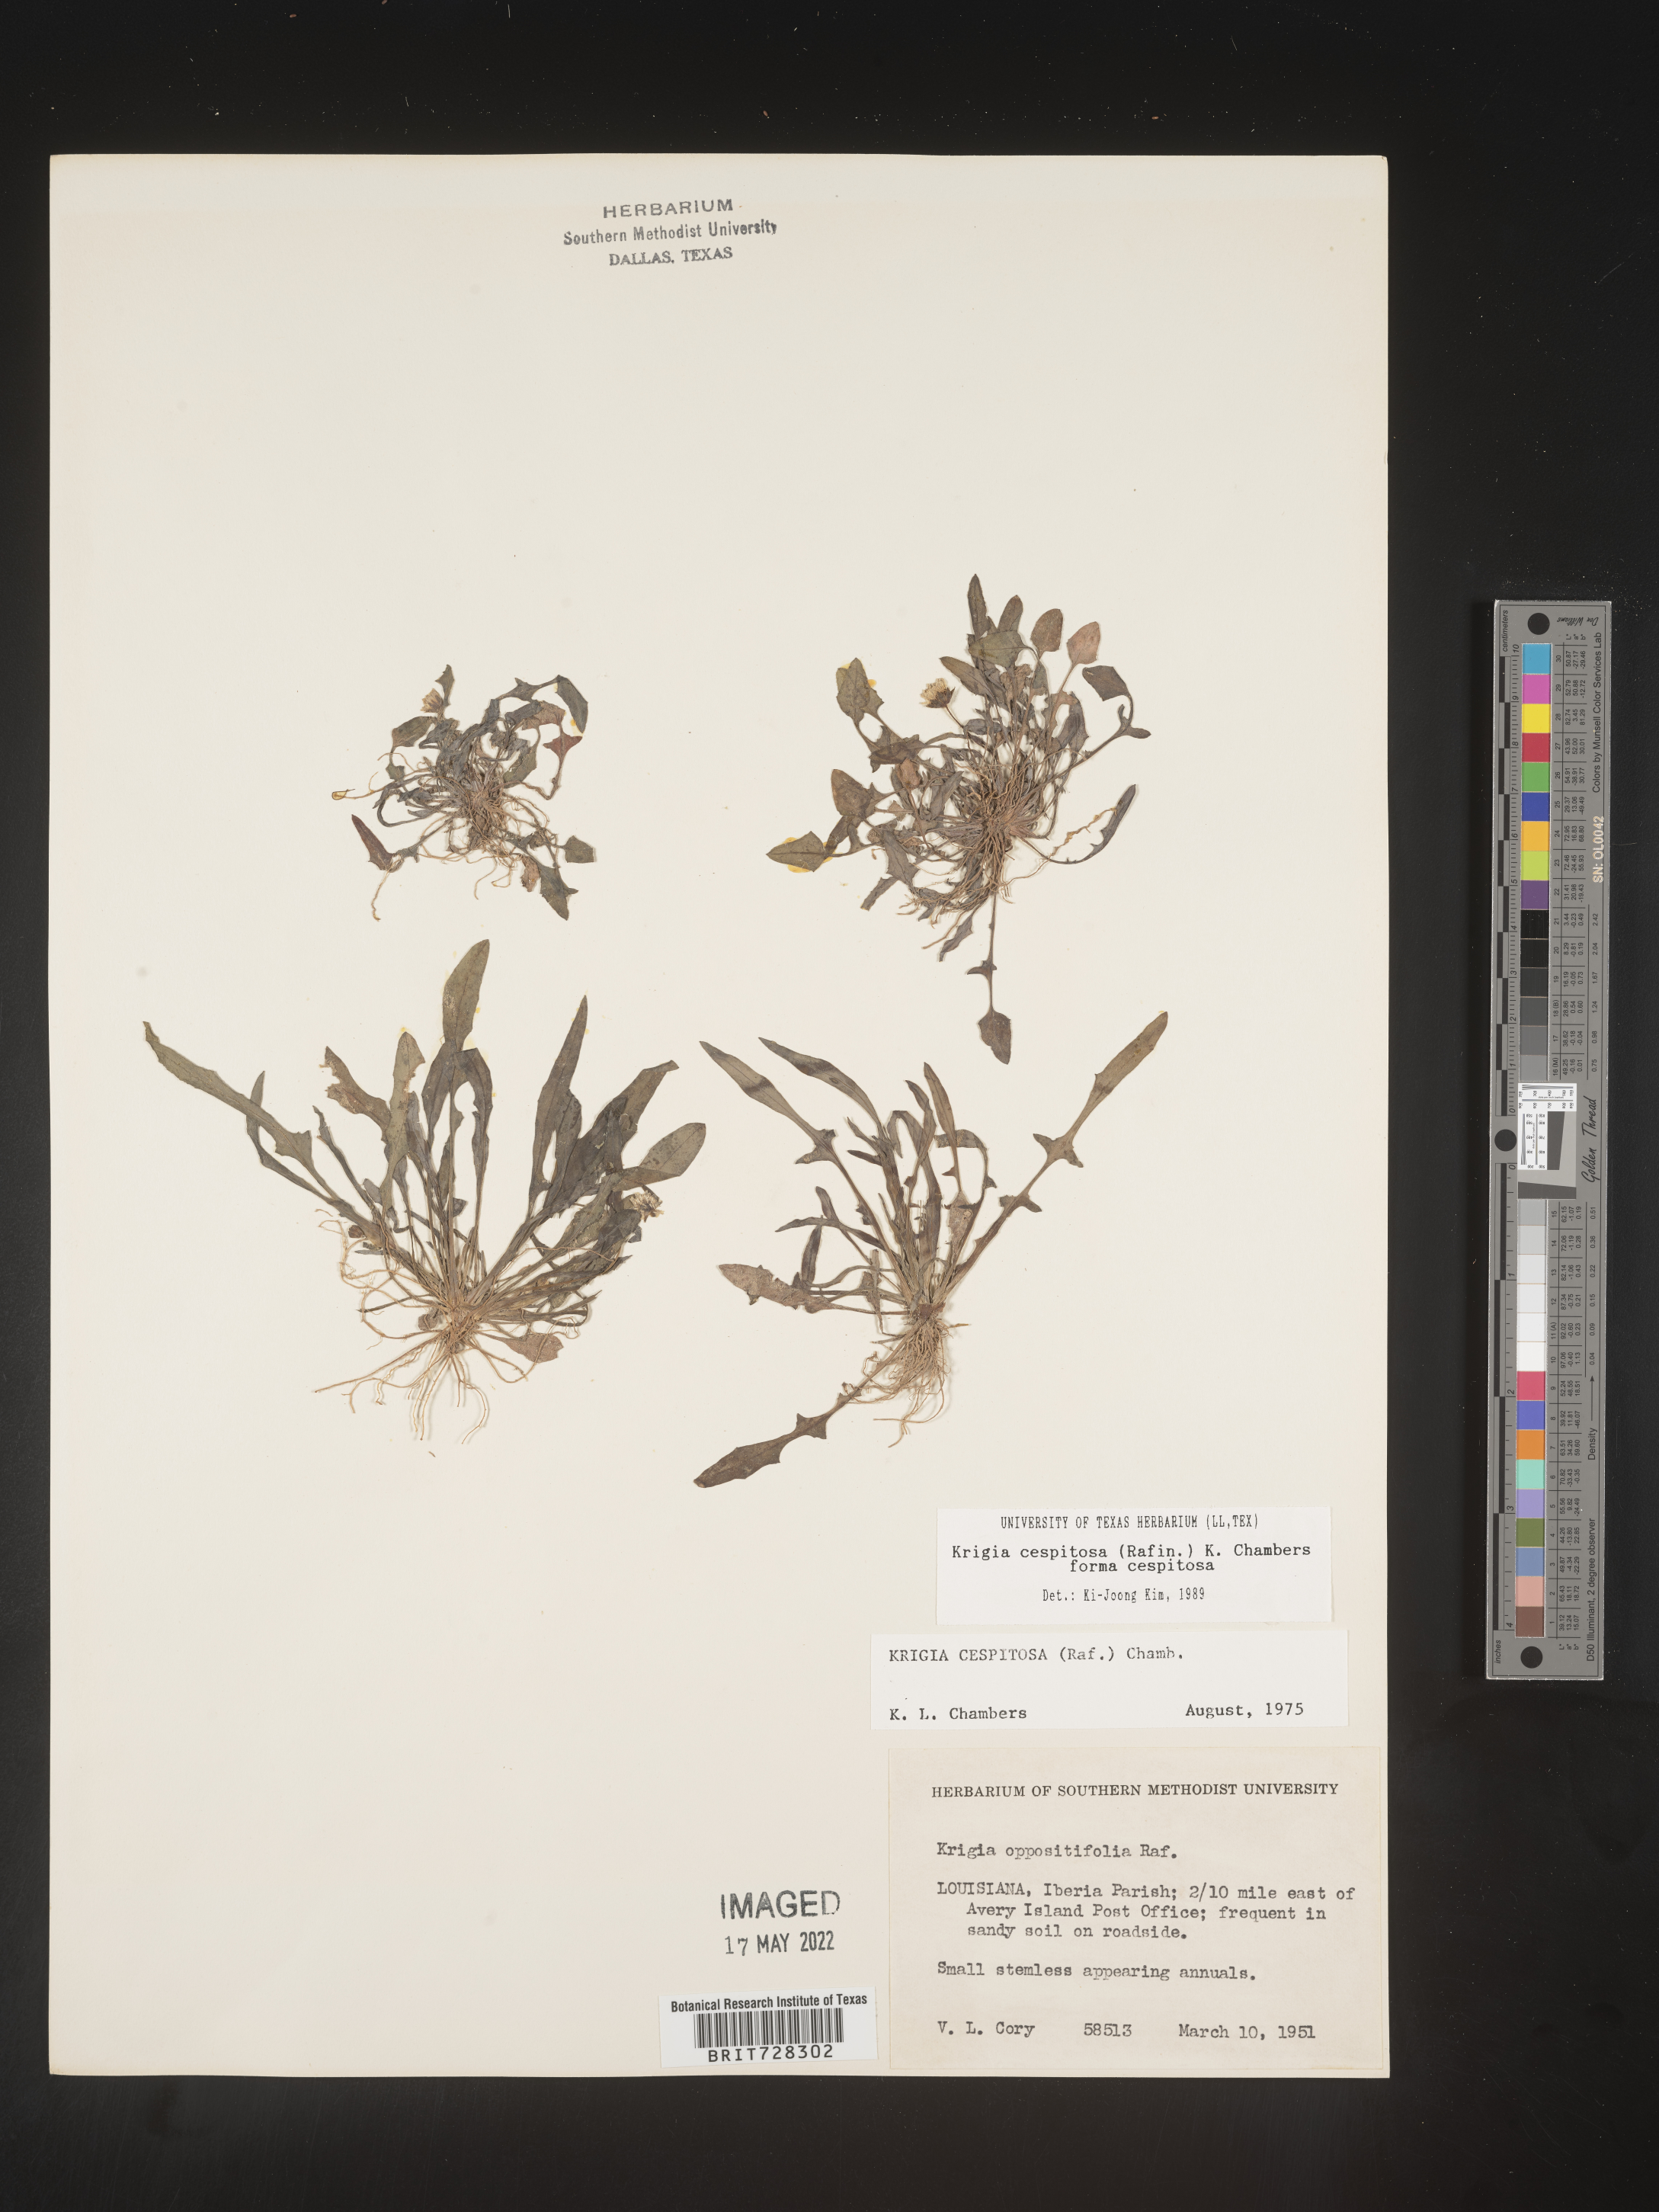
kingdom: Plantae
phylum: Tracheophyta
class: Magnoliopsida
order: Asterales
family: Asteraceae
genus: Krigia
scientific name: Krigia caespitosa
